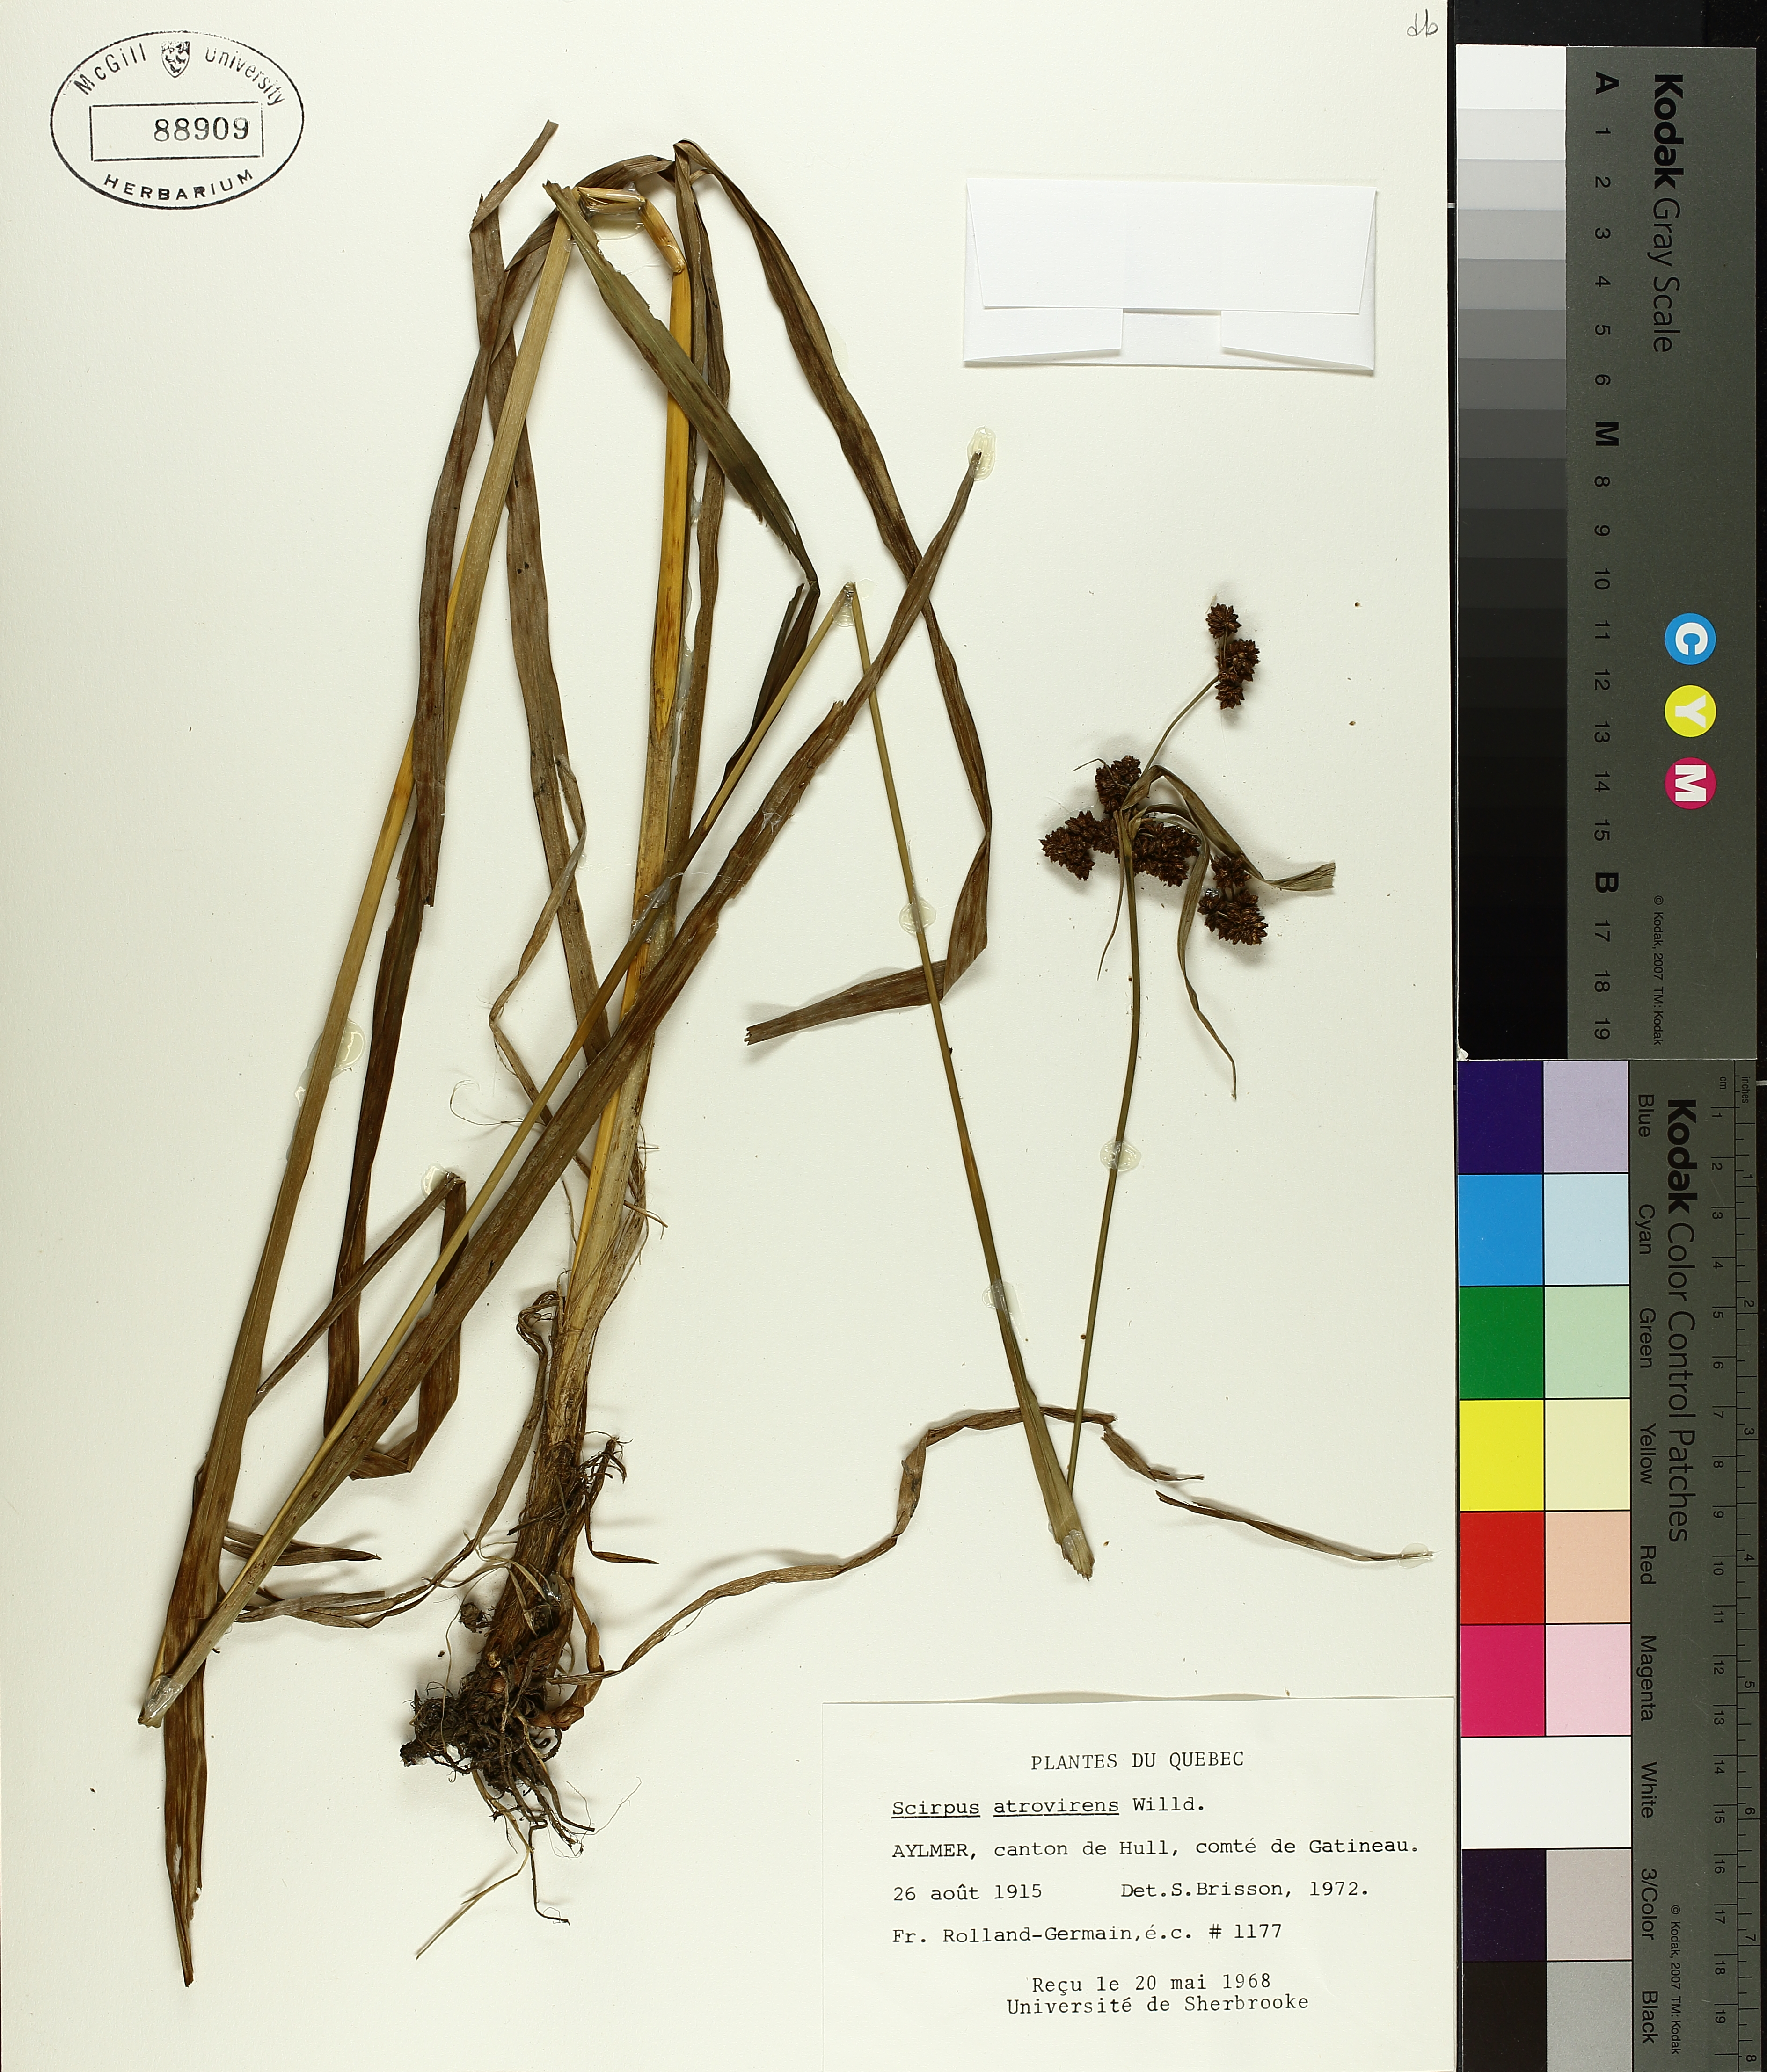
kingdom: Plantae
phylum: Tracheophyta
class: Liliopsida
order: Poales
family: Cyperaceae
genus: Scirpus
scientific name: Scirpus atrovirens
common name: Black bulrush
